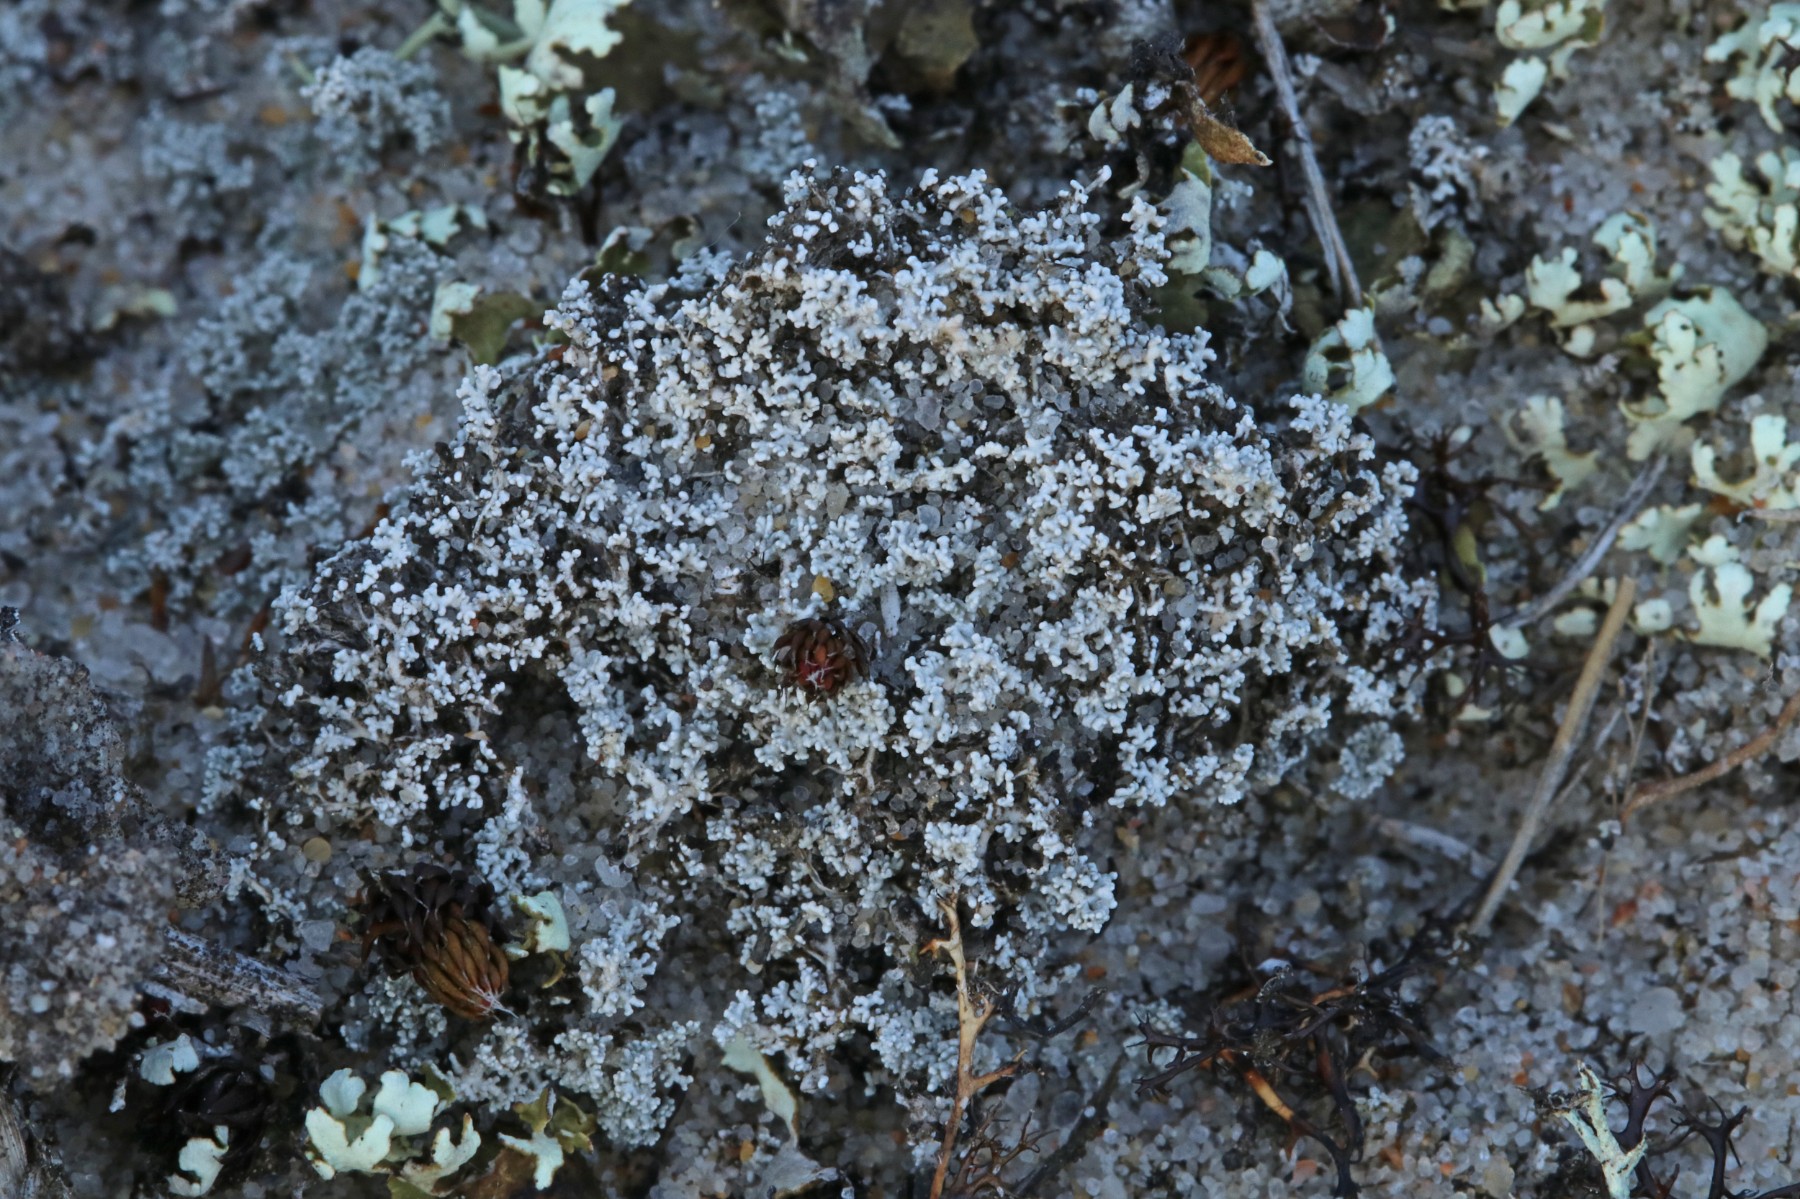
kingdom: Fungi
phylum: Ascomycota
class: Lecanoromycetes
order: Lecanorales
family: Stereocaulaceae
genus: Stereocaulon
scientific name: Stereocaulon condensatum
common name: lav korallav
